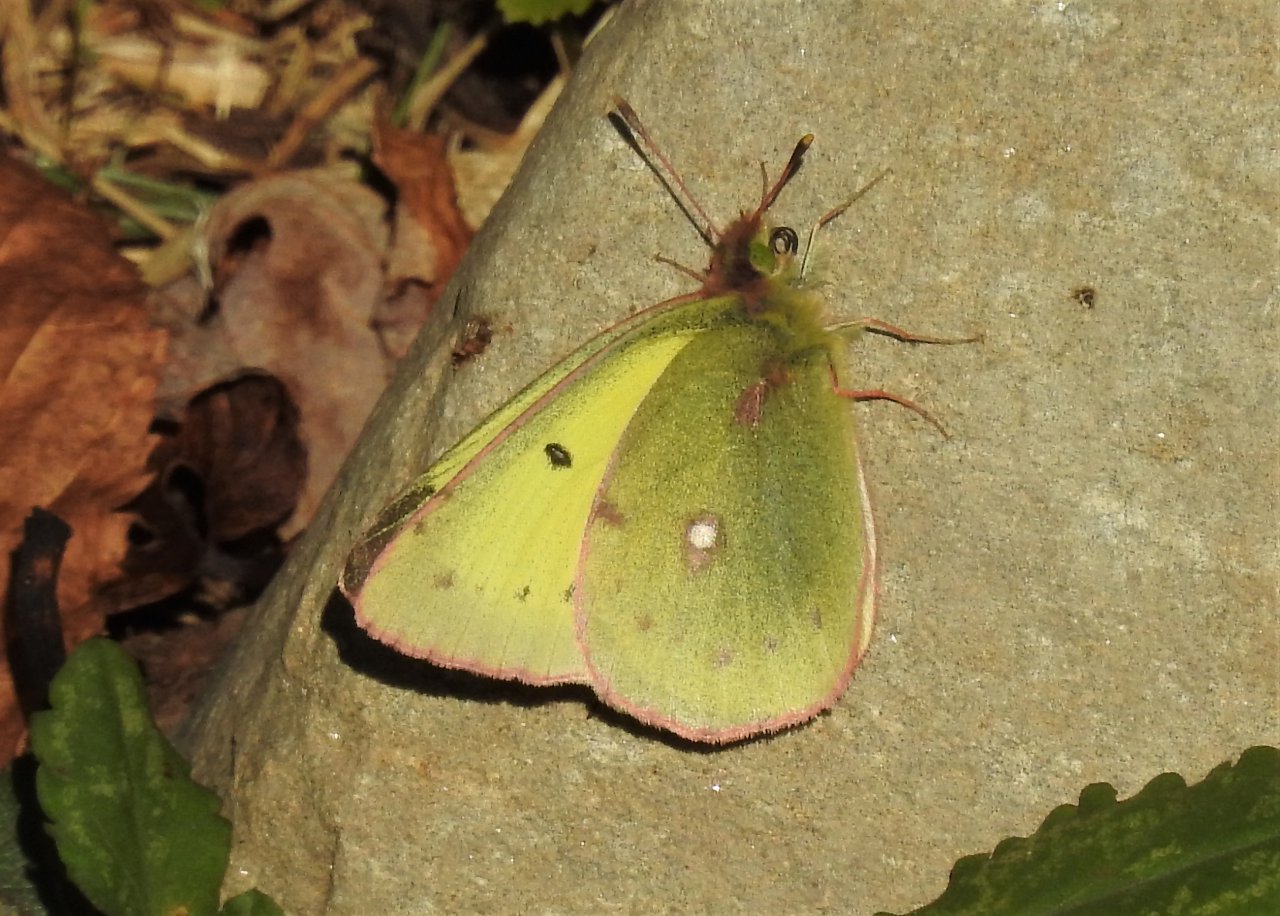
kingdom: Animalia
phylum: Arthropoda
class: Insecta
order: Lepidoptera
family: Pieridae
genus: Colias
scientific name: Colias philodice
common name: Clouded Sulphur
